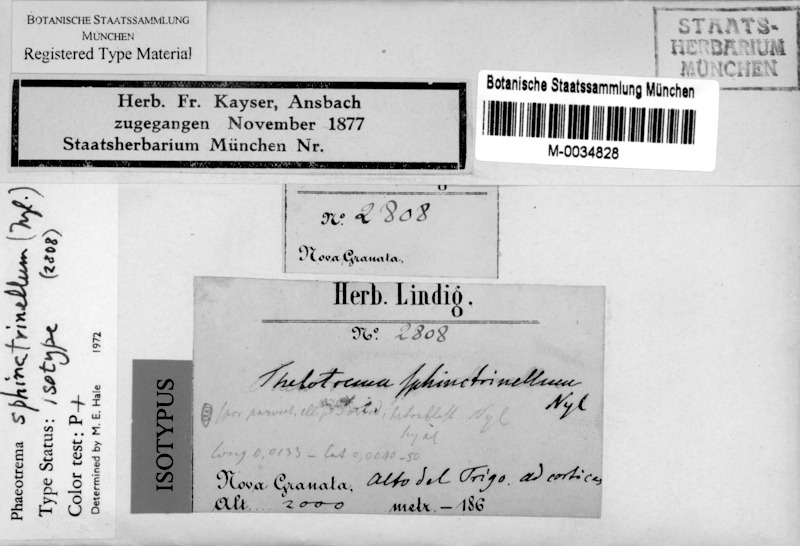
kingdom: Fungi
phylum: Ascomycota
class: Lecanoromycetes
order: Ostropales
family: Graphidaceae
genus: Myriotrema
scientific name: Myriotrema sphinctrinellum
